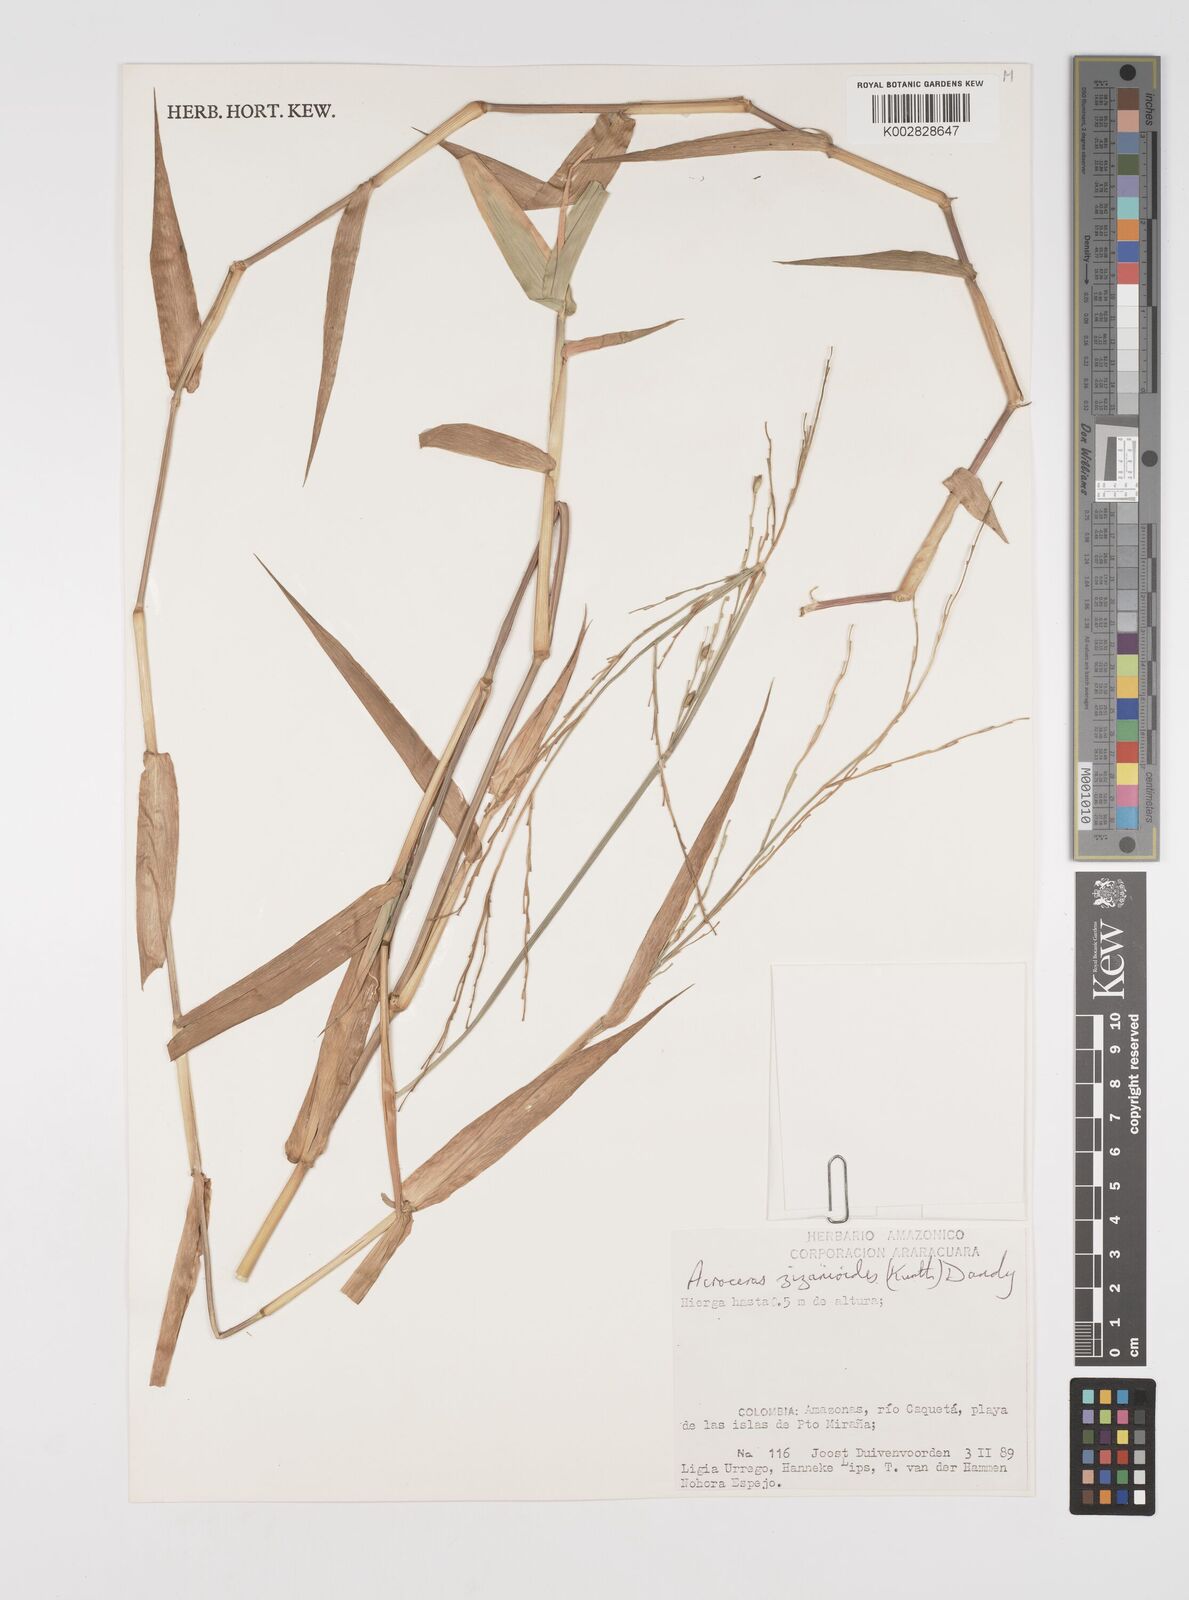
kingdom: Plantae
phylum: Tracheophyta
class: Liliopsida
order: Poales
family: Poaceae
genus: Acroceras
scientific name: Acroceras zizanioides
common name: Oat grass
